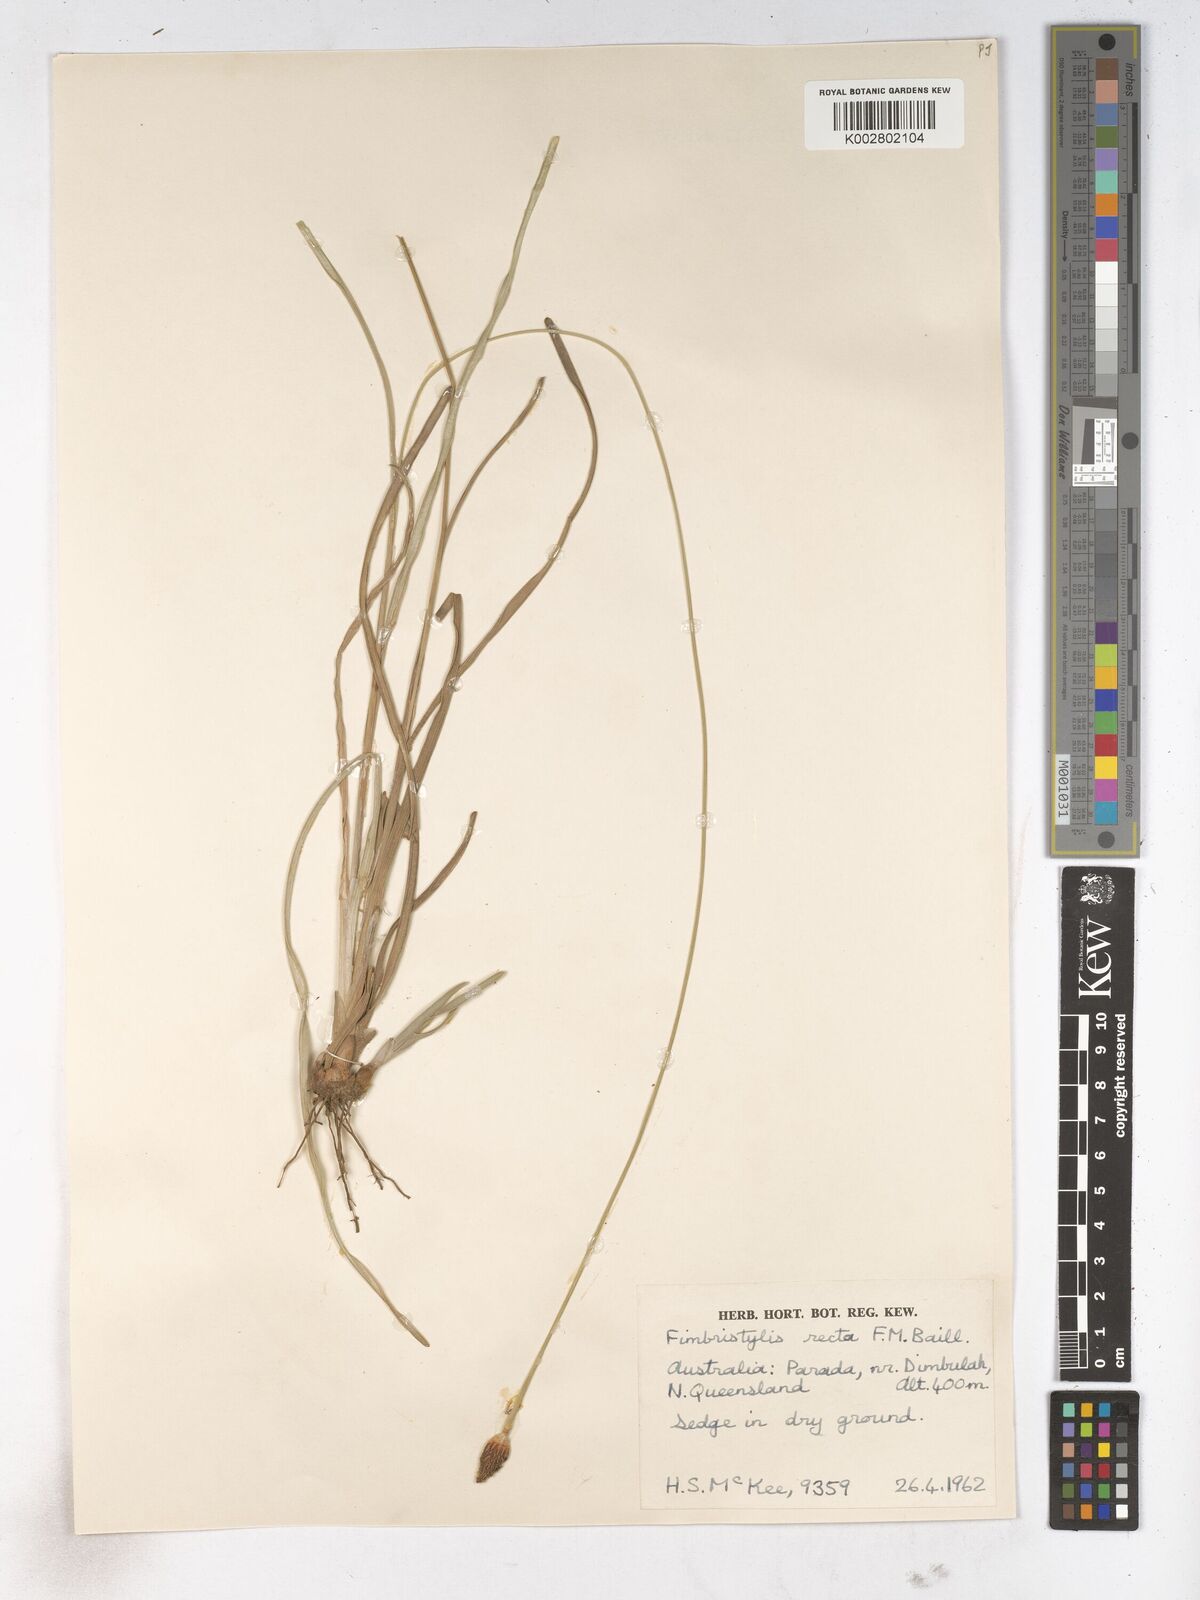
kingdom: Plantae
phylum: Tracheophyta
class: Liliopsida
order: Poales
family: Cyperaceae
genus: Fimbristylis
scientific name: Fimbristylis recta
